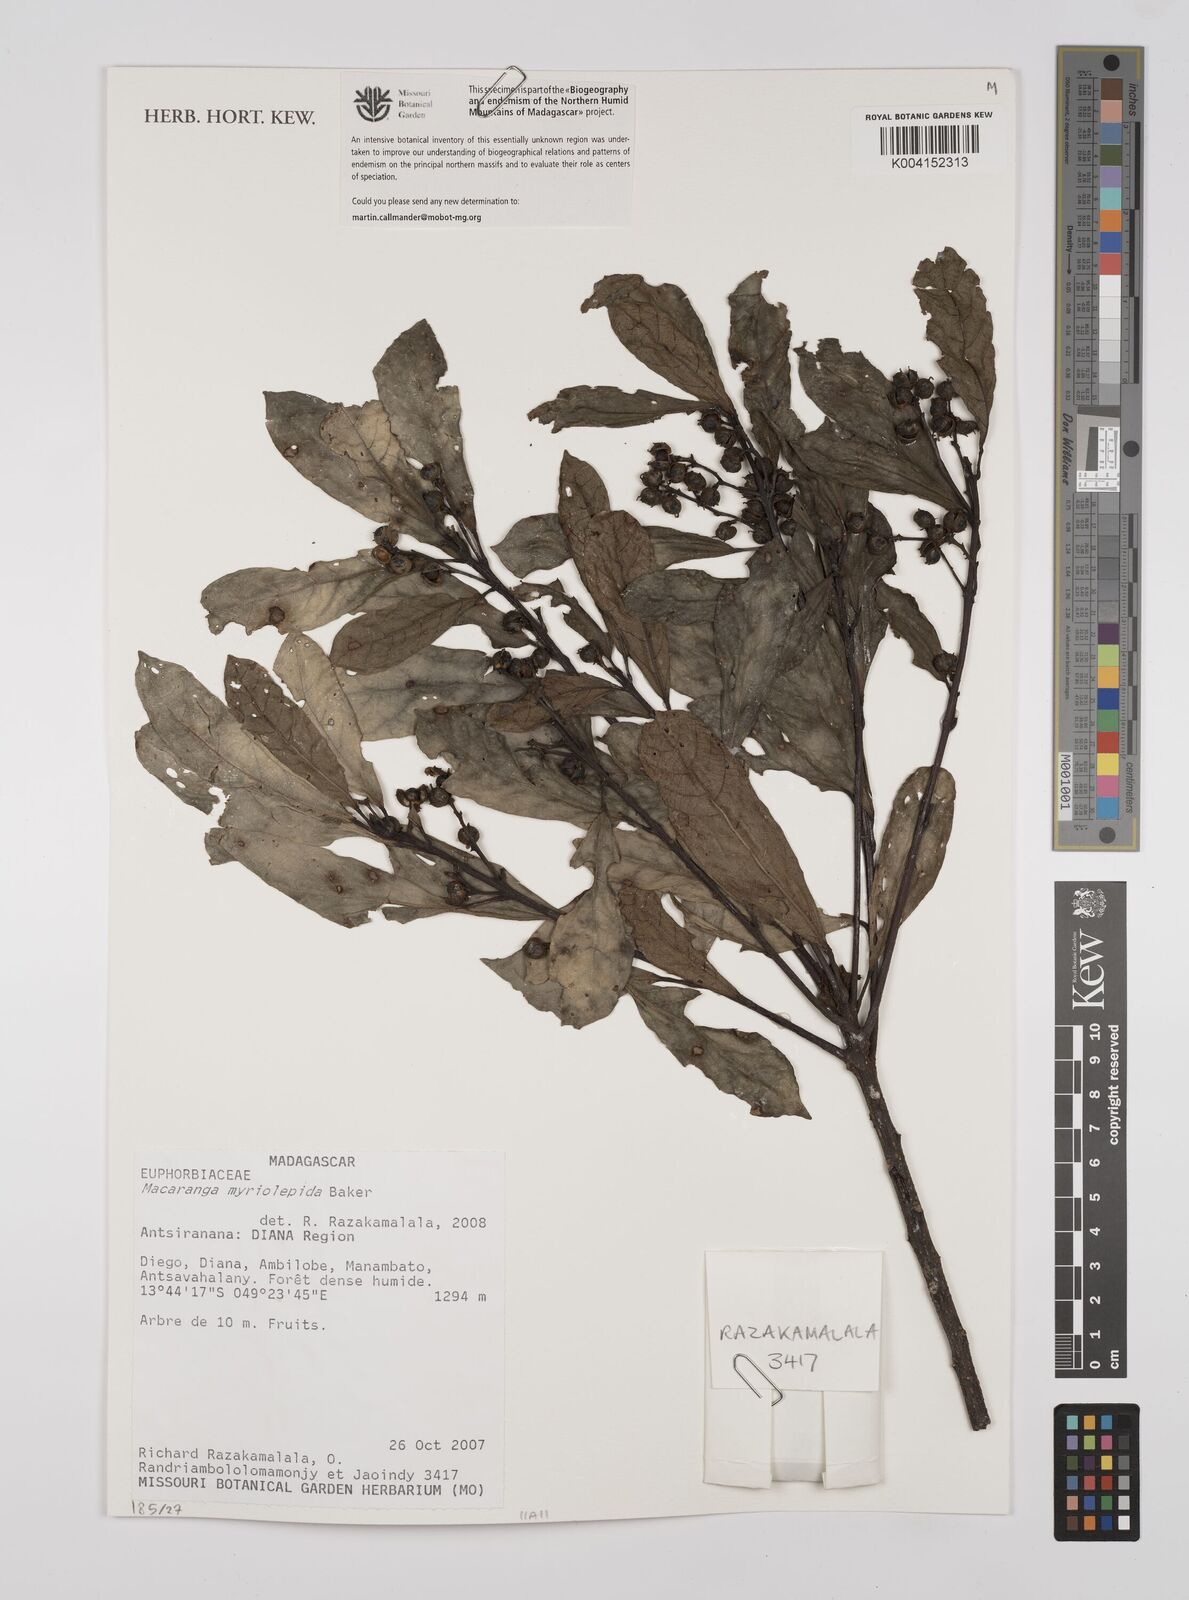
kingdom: Plantae
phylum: Tracheophyta
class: Magnoliopsida
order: Malpighiales
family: Euphorbiaceae
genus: Macaranga
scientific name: Macaranga myriolepida
